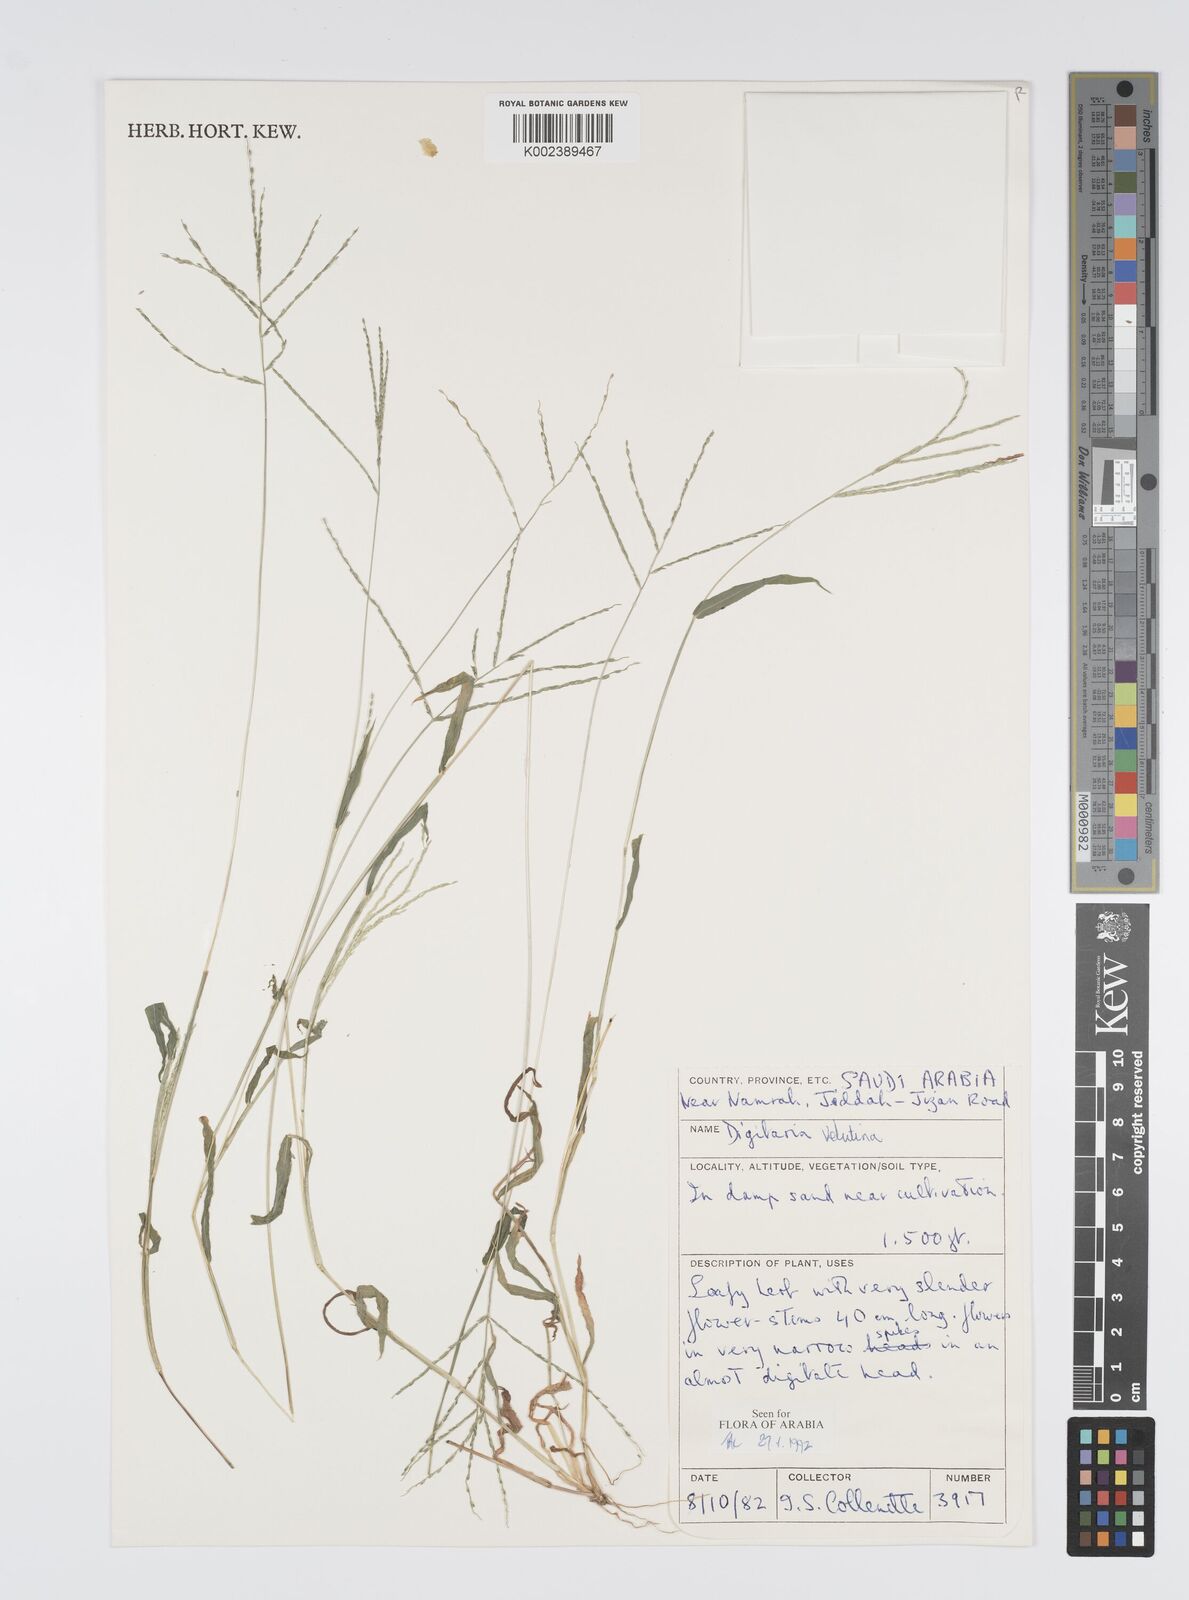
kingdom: Plantae
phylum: Tracheophyta
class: Liliopsida
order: Poales
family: Poaceae
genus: Digitaria
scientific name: Digitaria spec
